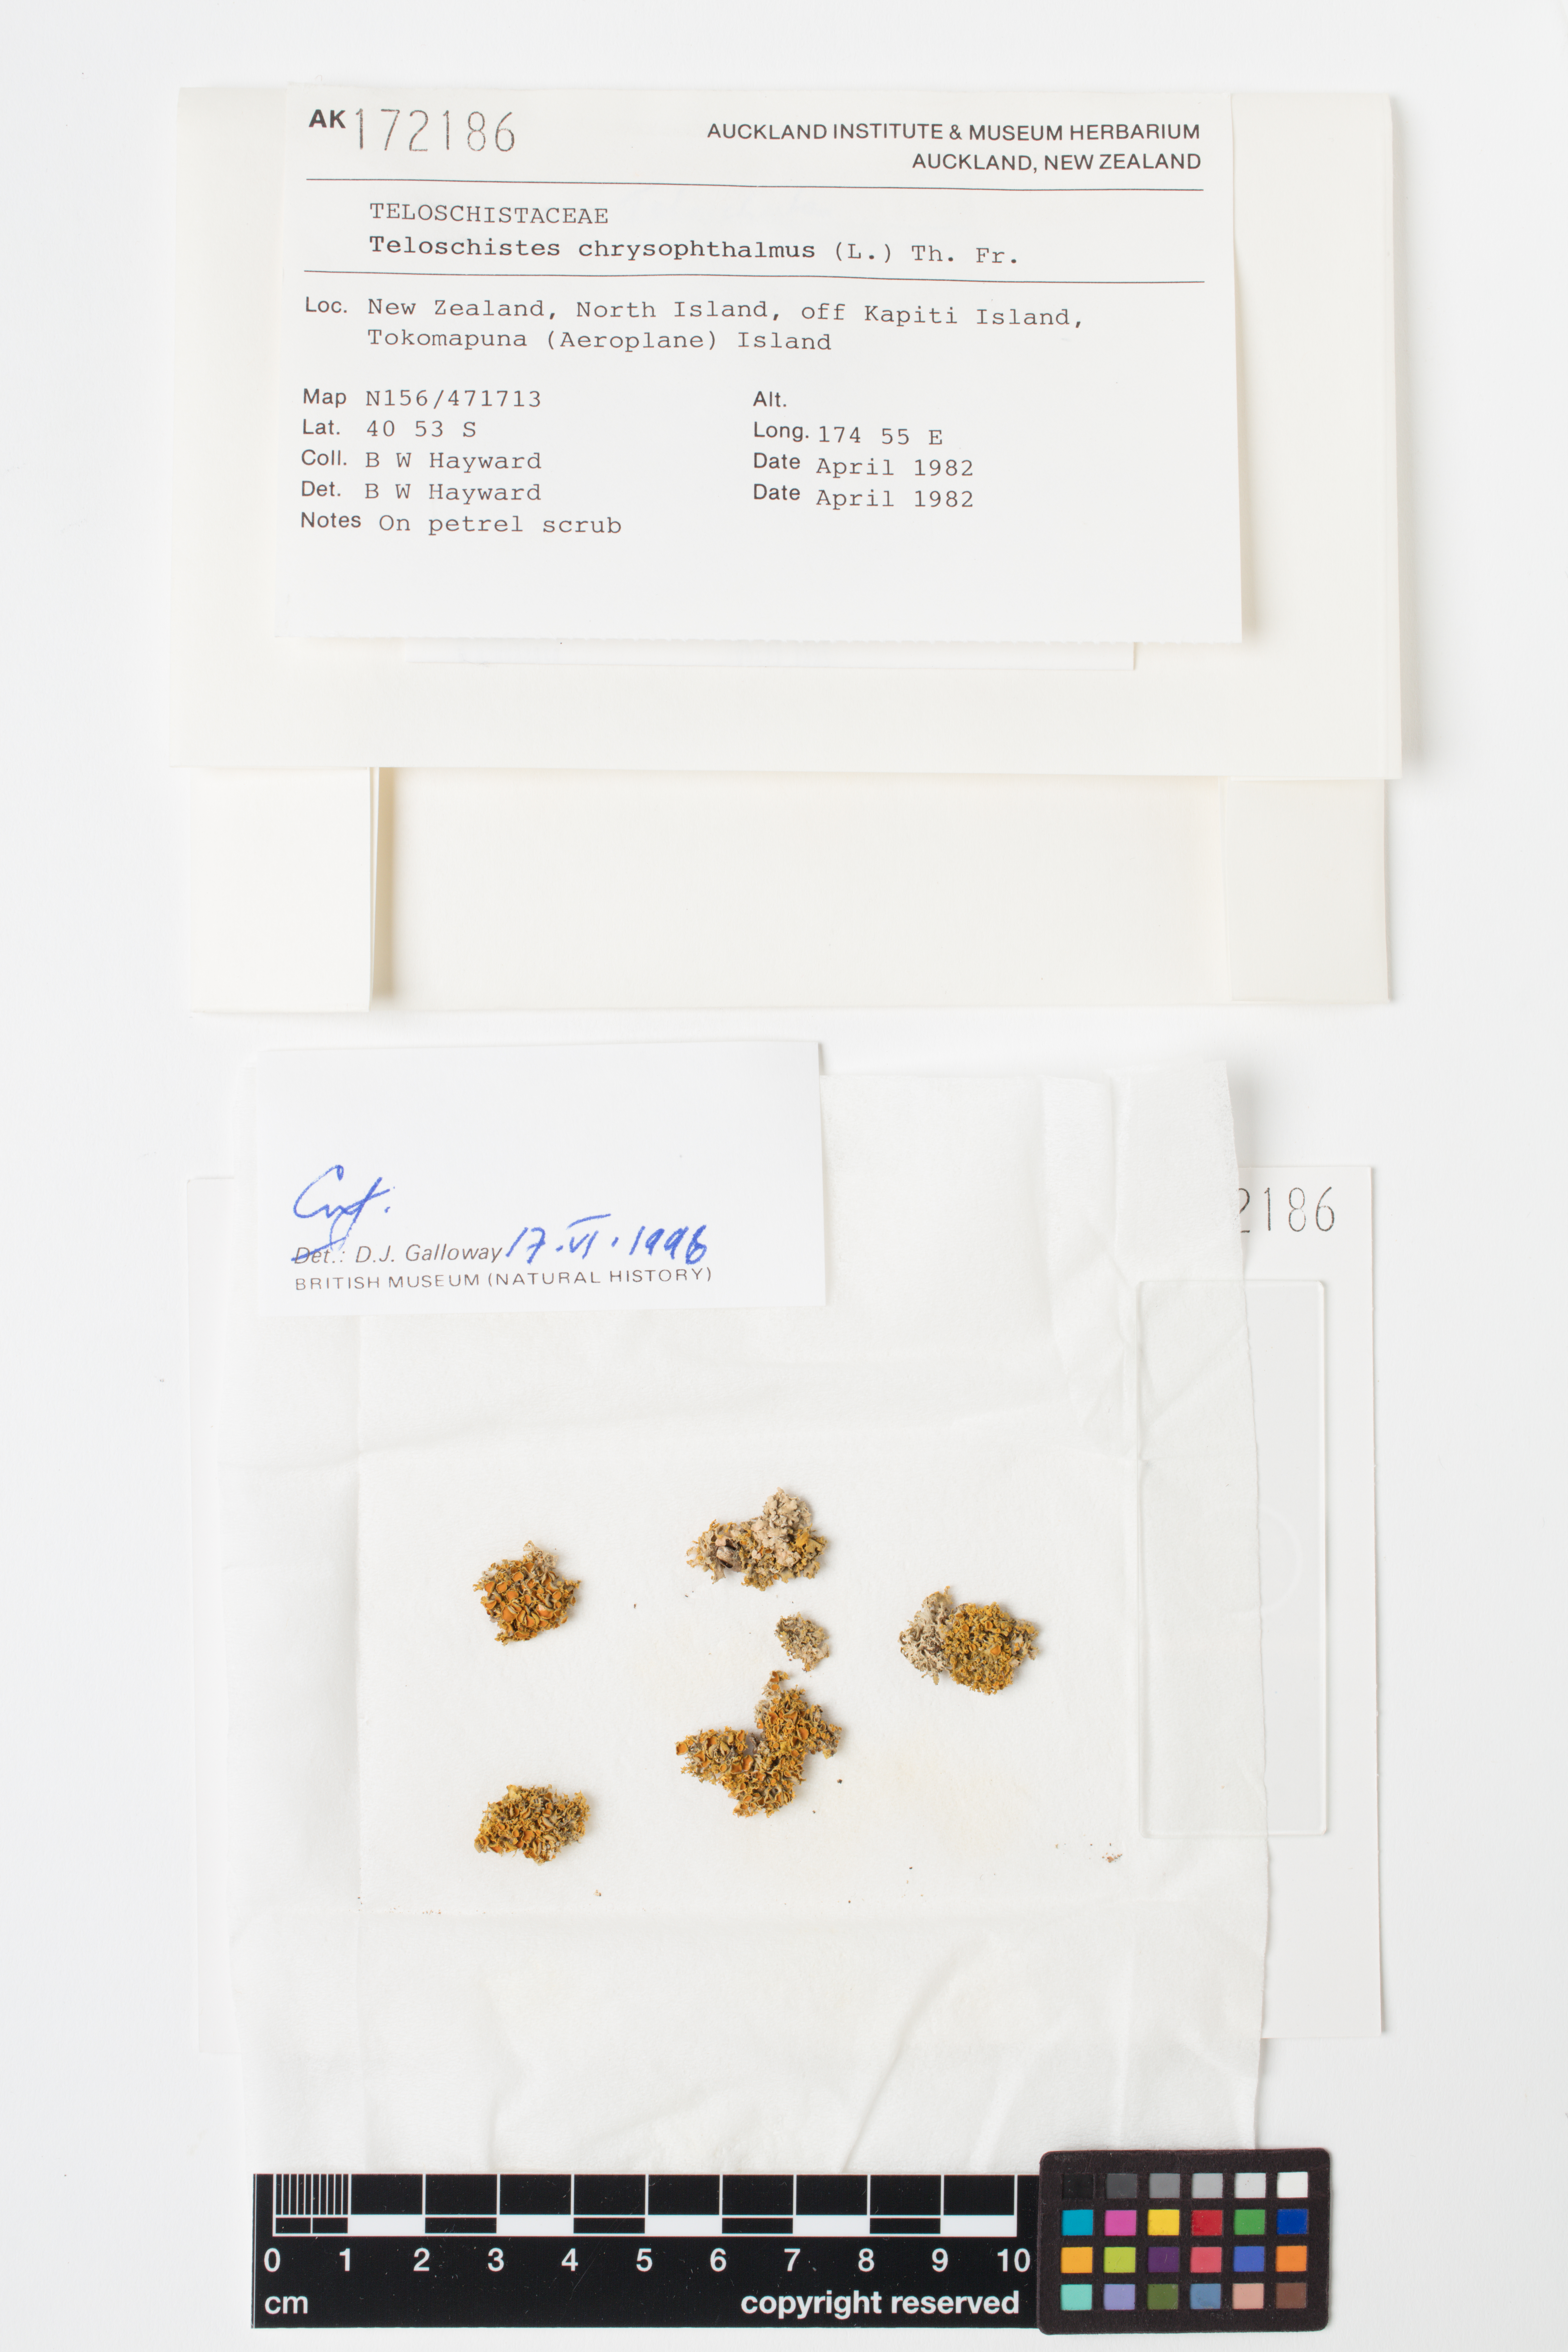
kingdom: Fungi
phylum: Ascomycota
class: Lecanoromycetes
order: Teloschistales
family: Teloschistaceae
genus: Niorma
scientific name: Niorma chrysophthalma
